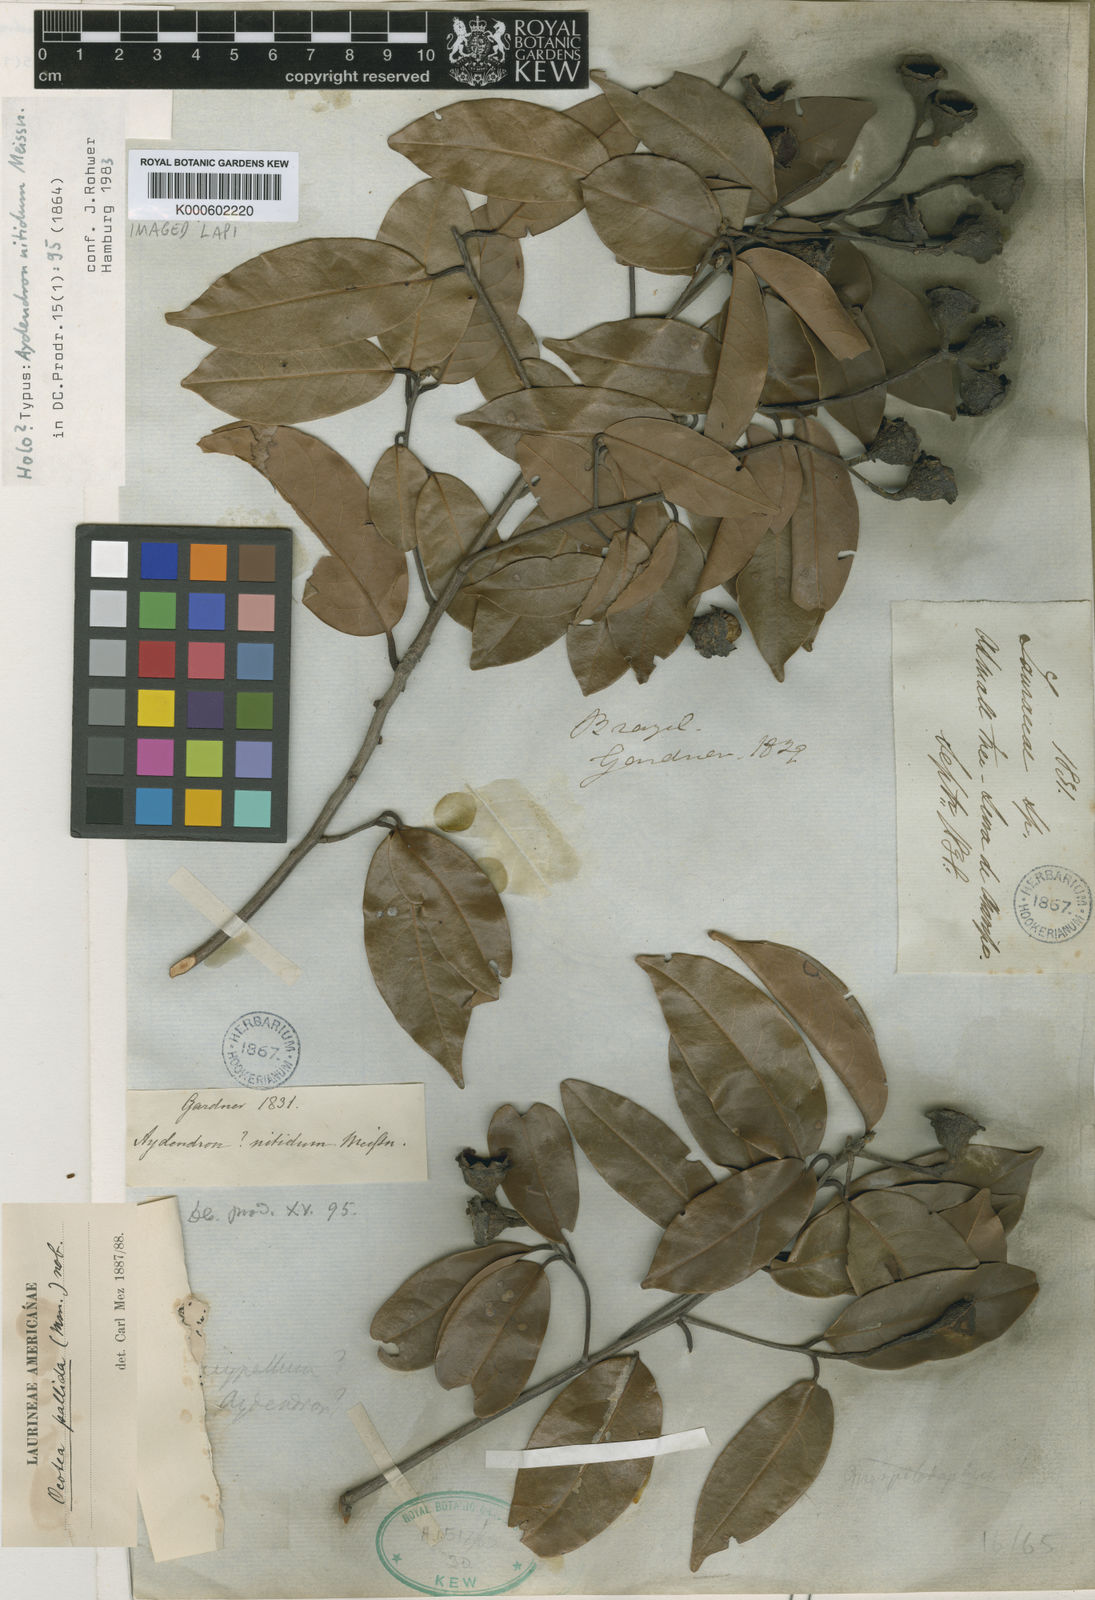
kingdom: Plantae
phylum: Tracheophyta
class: Magnoliopsida
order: Laurales
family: Lauraceae
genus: Ocotea
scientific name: Ocotea nitida
